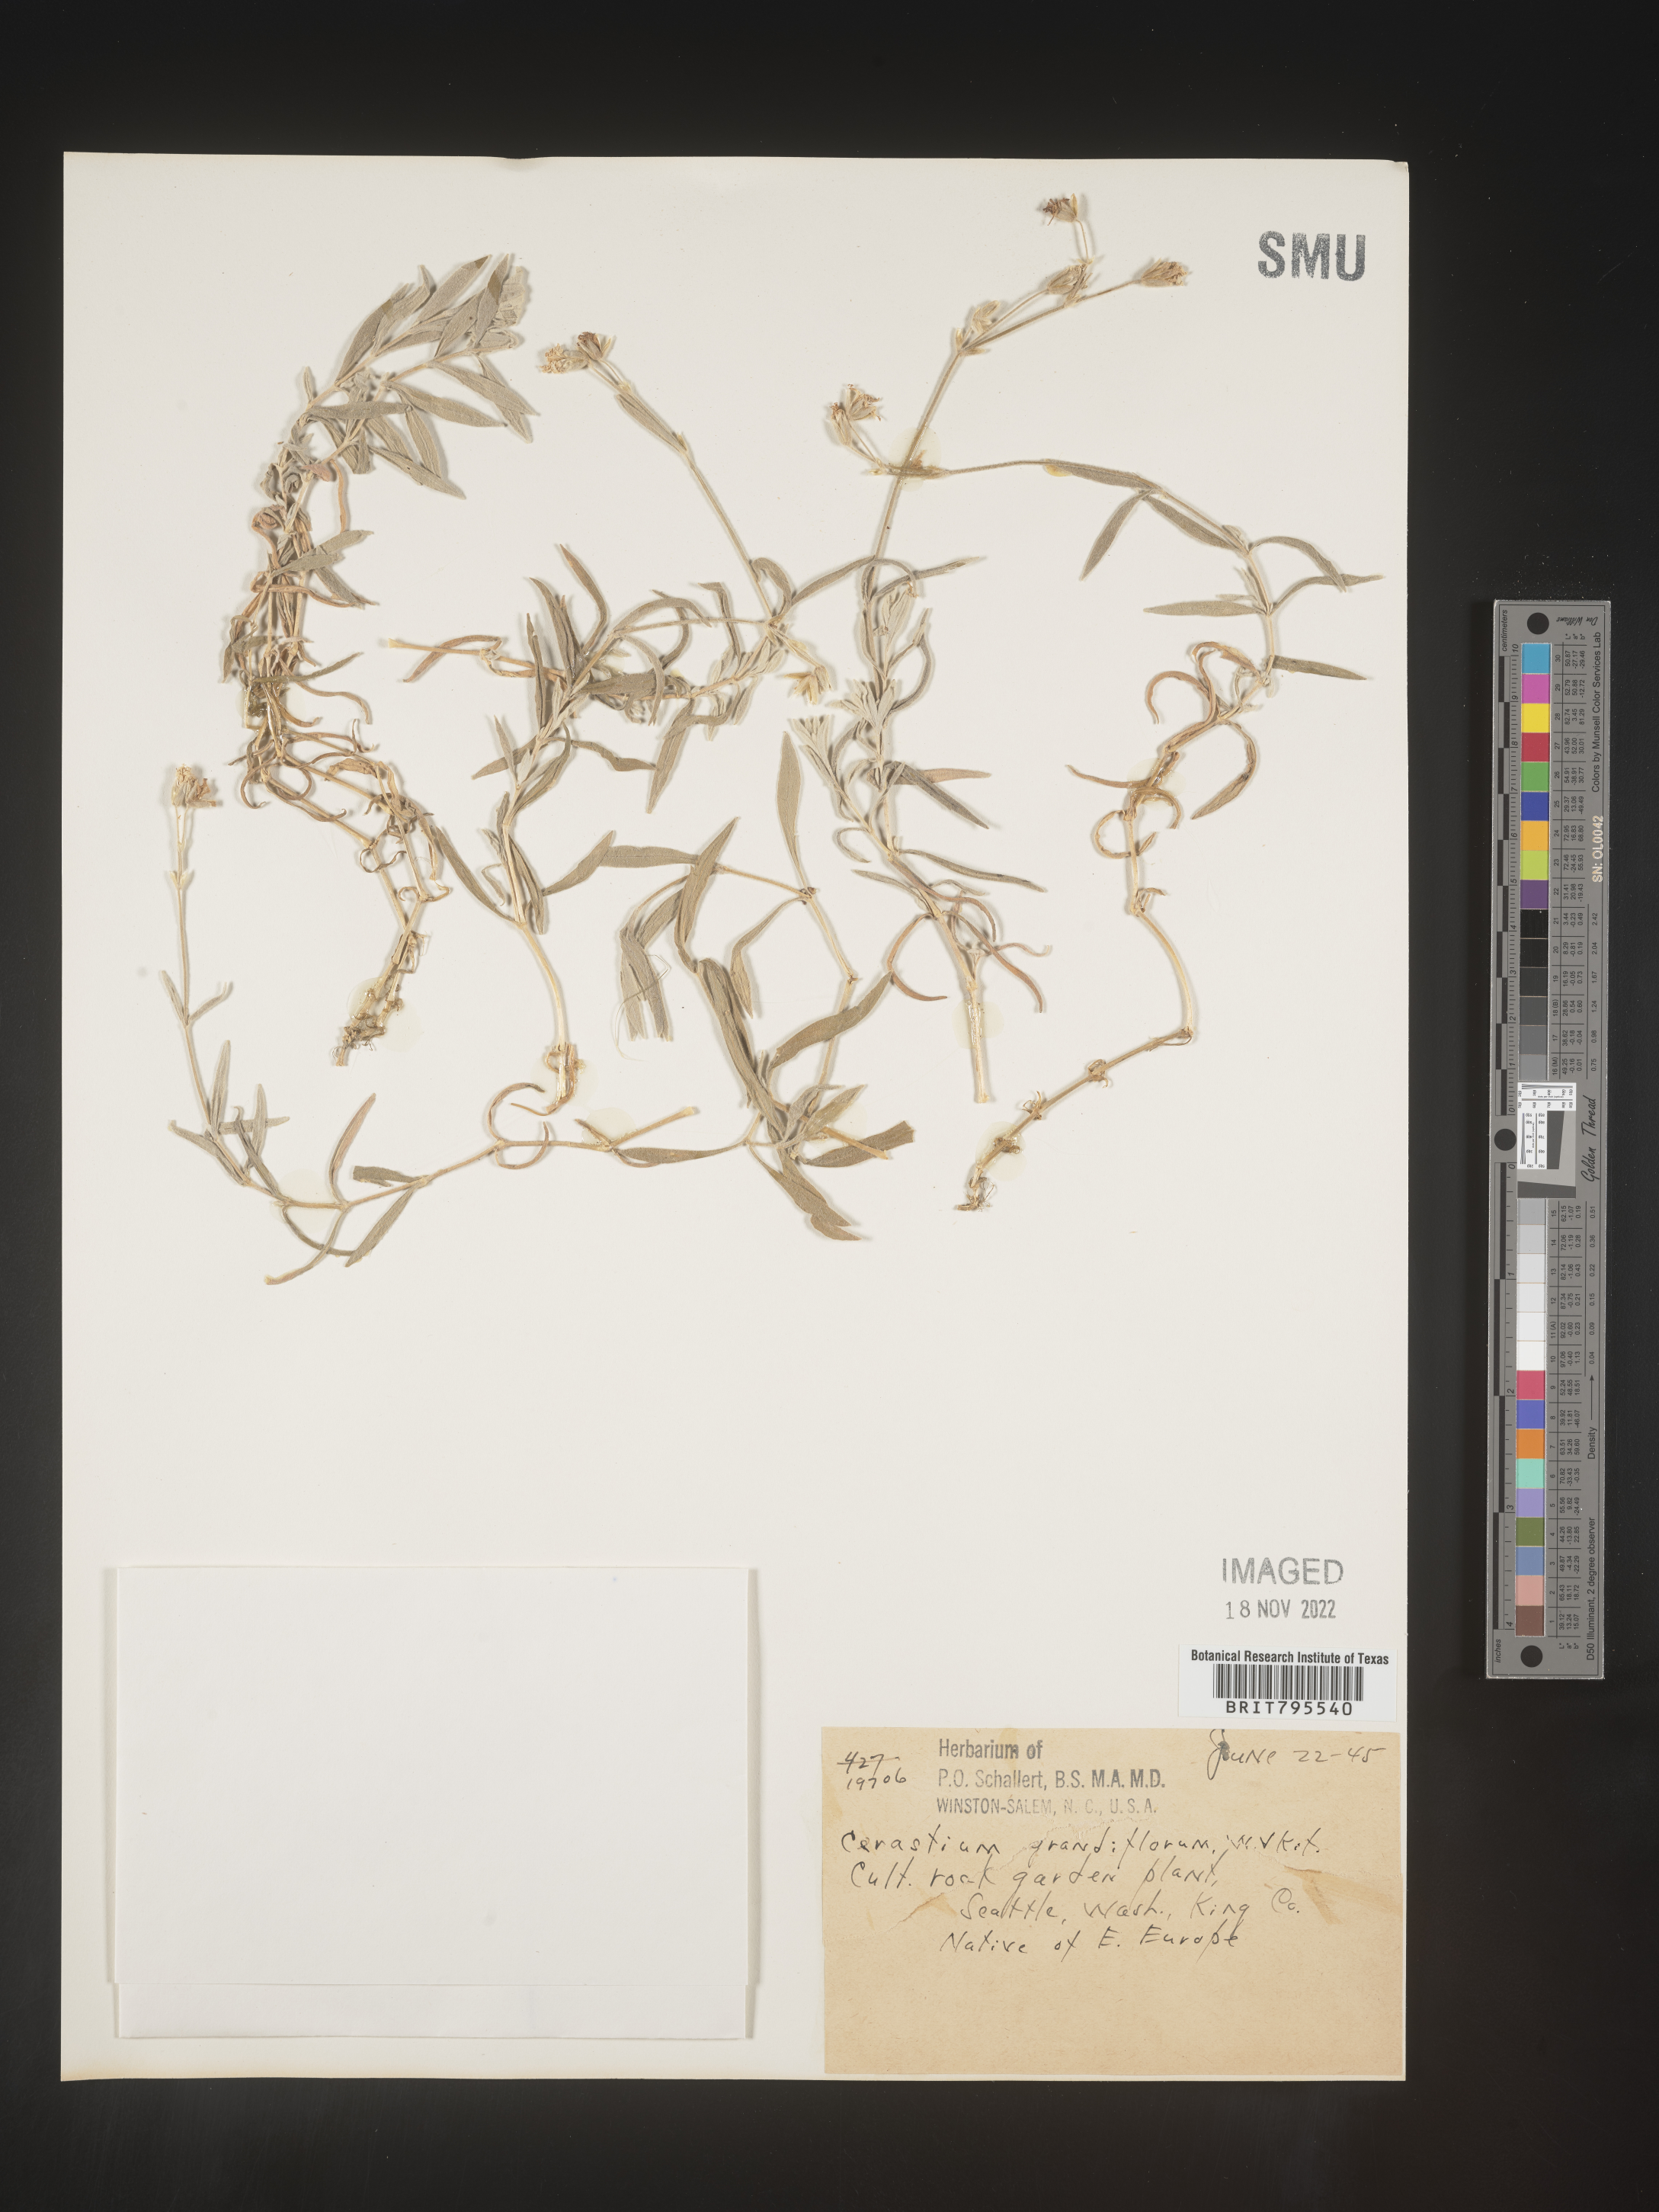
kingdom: Plantae
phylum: Tracheophyta
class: Magnoliopsida
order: Caryophyllales
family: Caryophyllaceae
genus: Cerastium
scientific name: Cerastium
